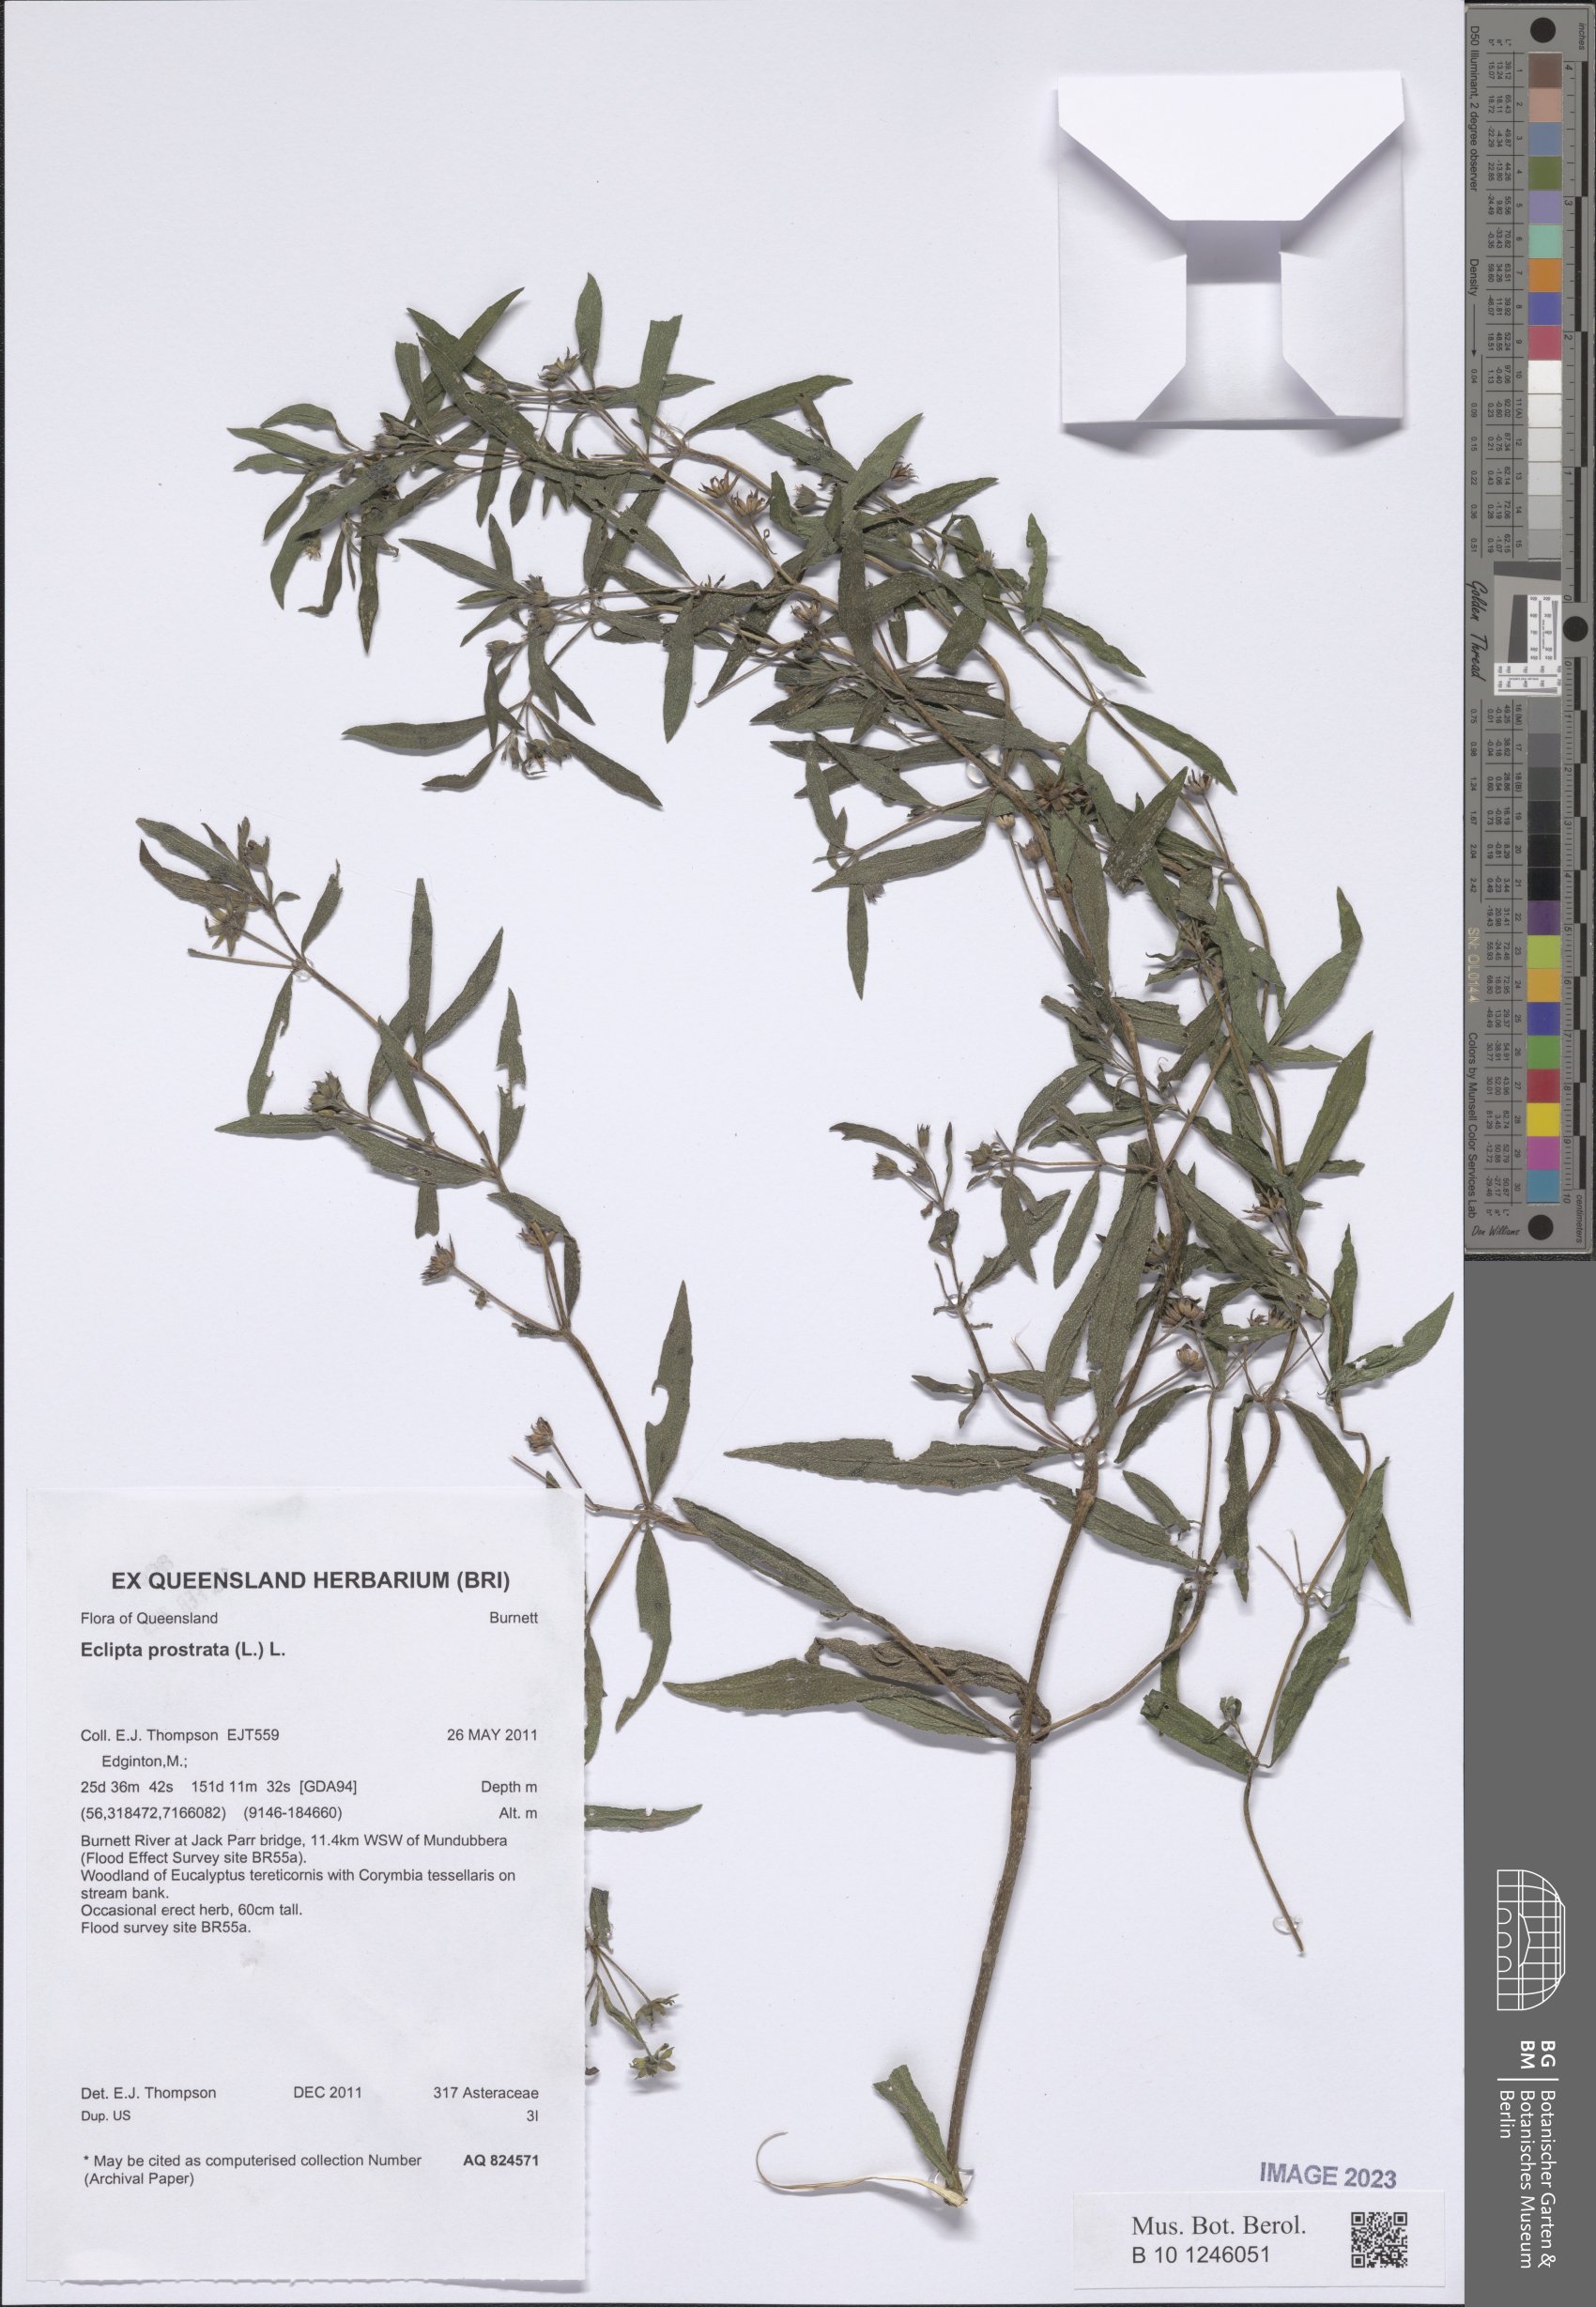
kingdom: Plantae
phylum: Tracheophyta
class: Magnoliopsida
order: Asterales
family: Asteraceae
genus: Eclipta
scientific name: Eclipta prostrata
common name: False daisy
